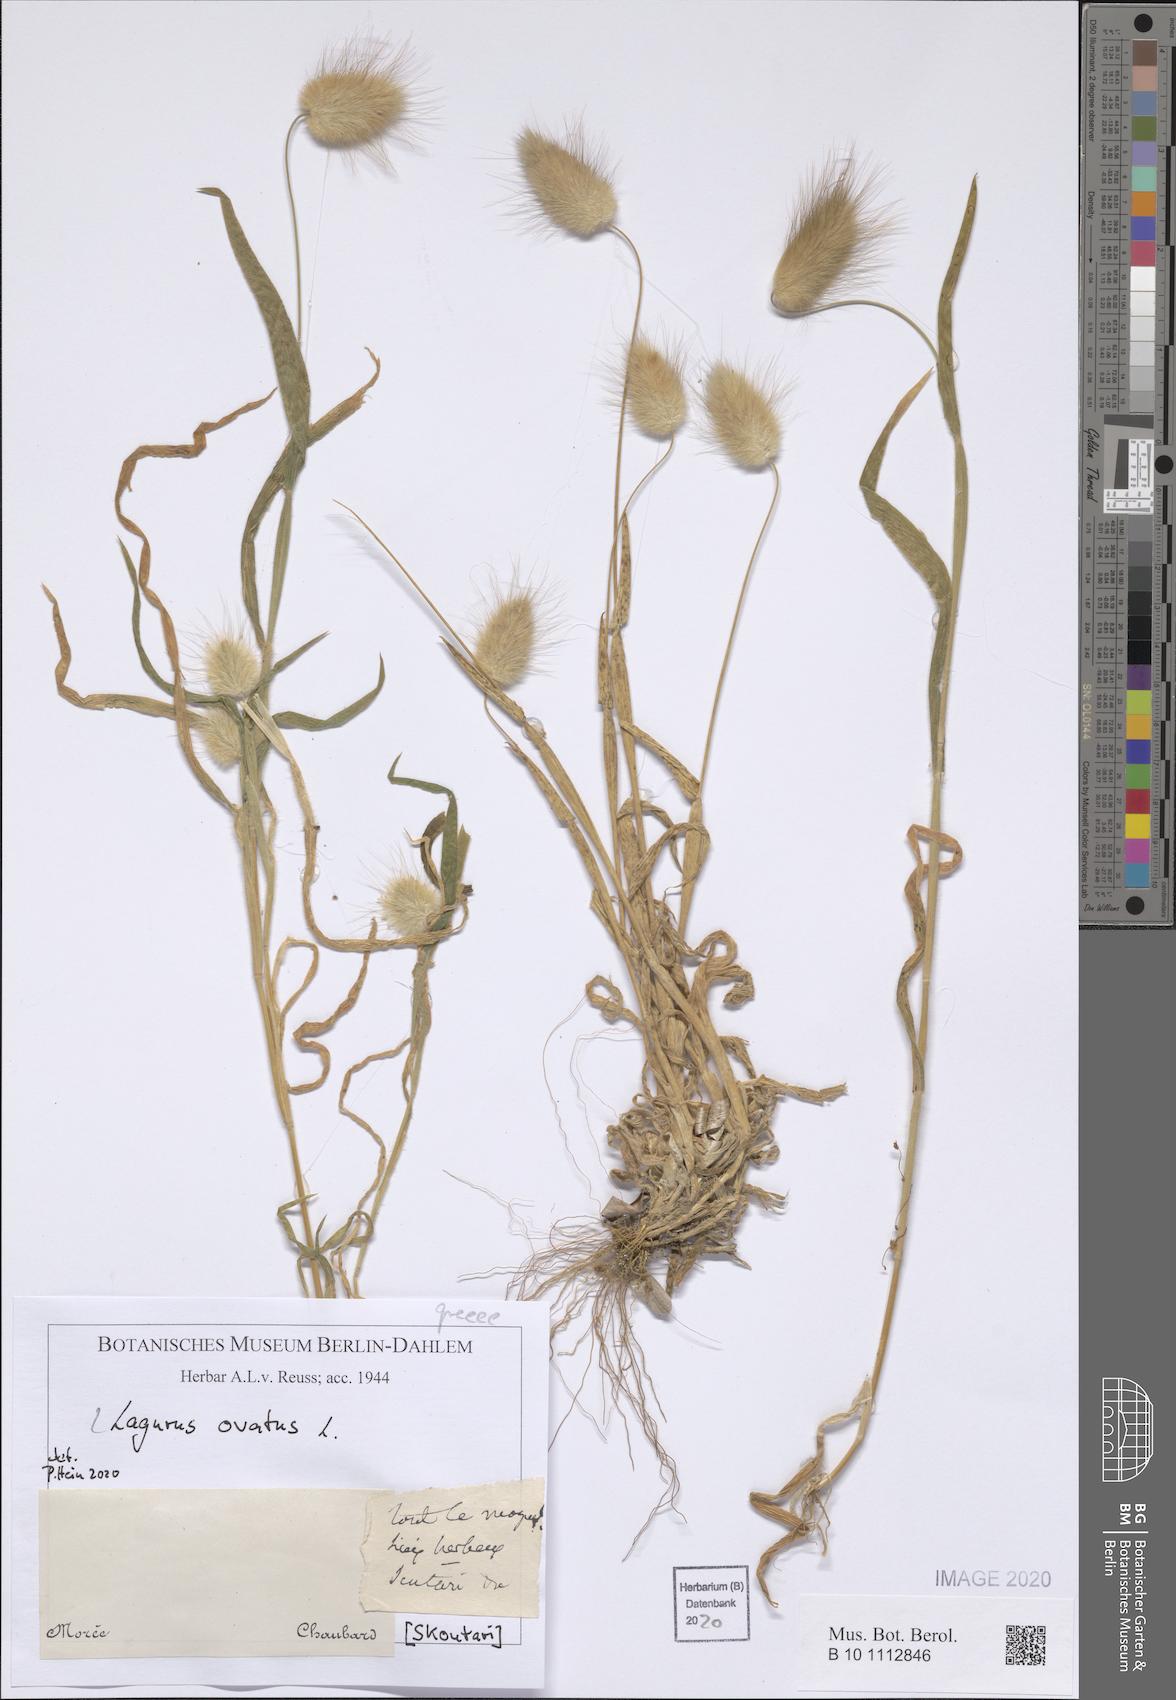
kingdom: Plantae
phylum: Tracheophyta
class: Liliopsida
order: Poales
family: Poaceae
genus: Lagurus
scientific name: Lagurus ovatus
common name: Hare's-tail
